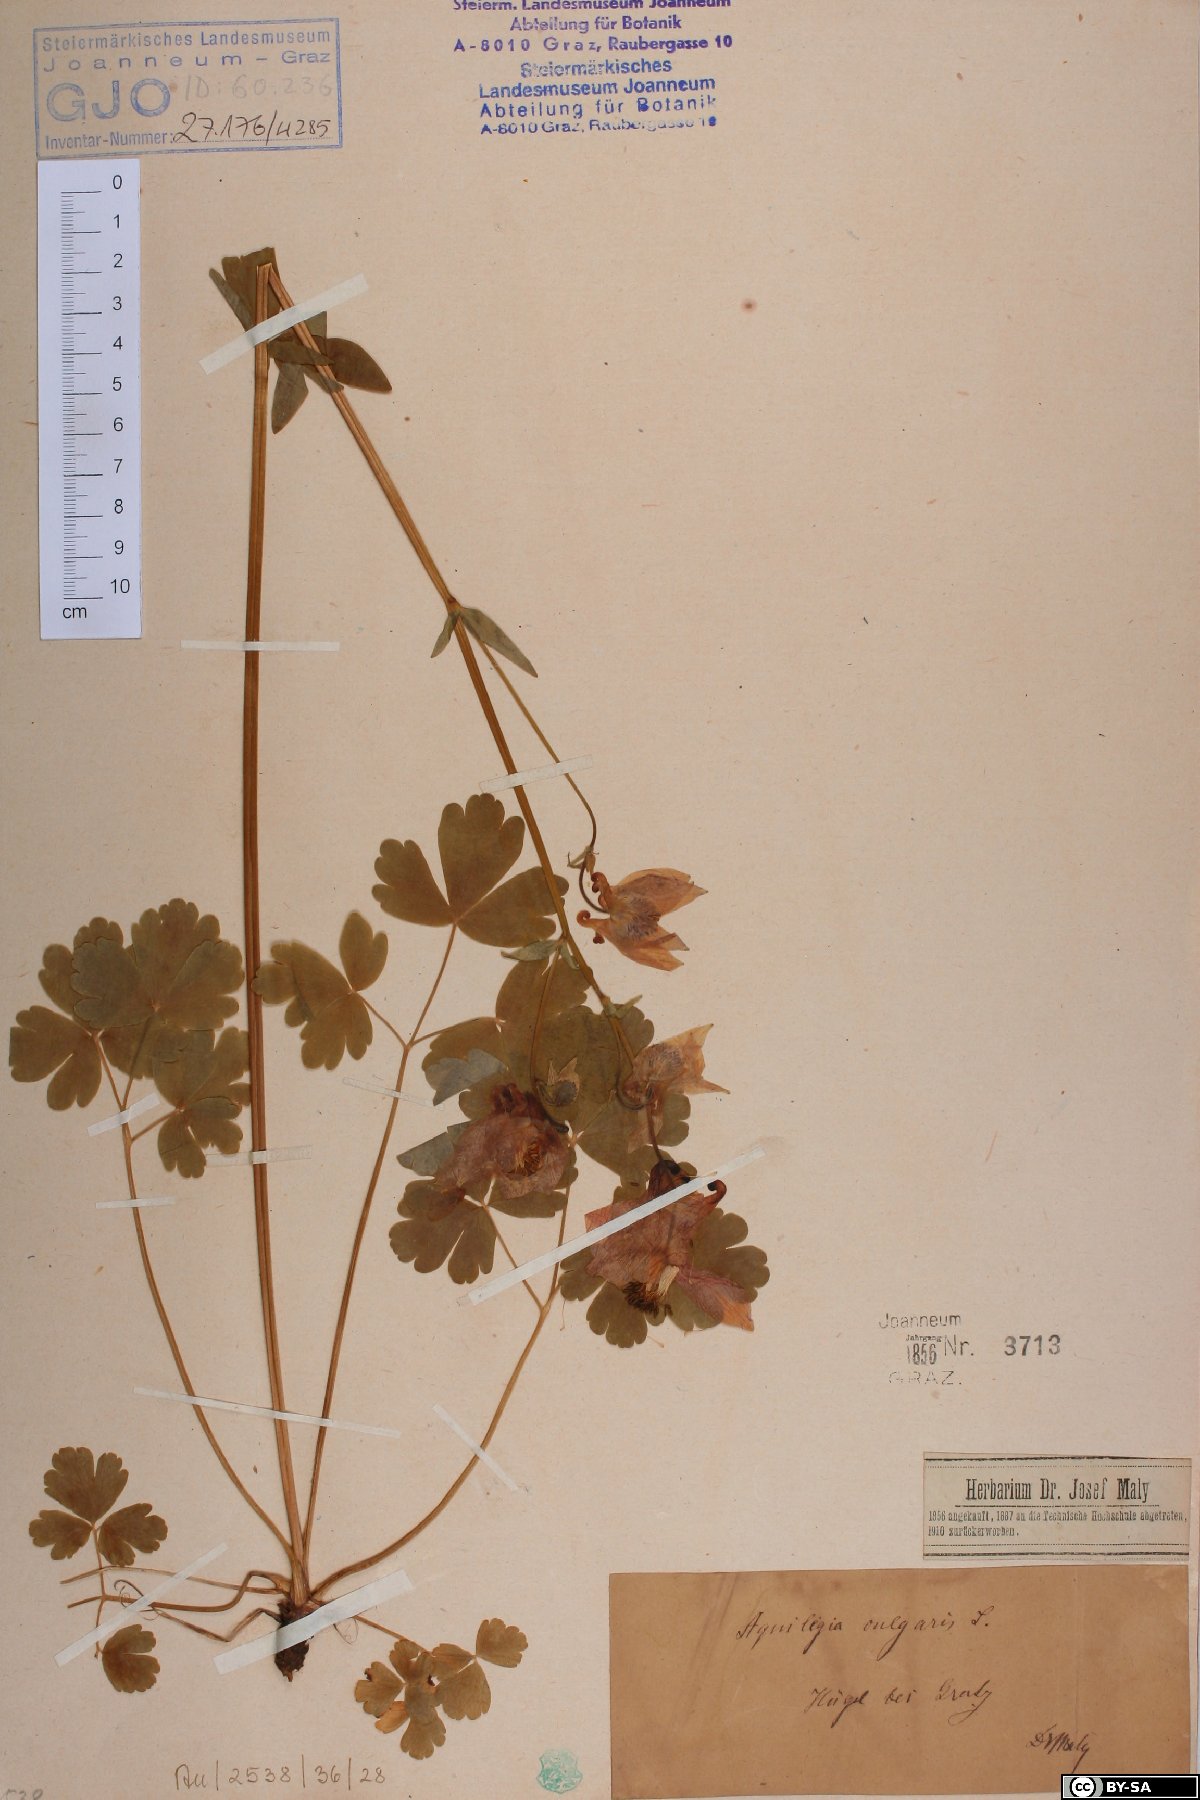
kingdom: Plantae
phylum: Tracheophyta
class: Magnoliopsida
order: Ranunculales
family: Ranunculaceae
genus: Aquilegia
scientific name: Aquilegia vulgaris
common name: Columbine
